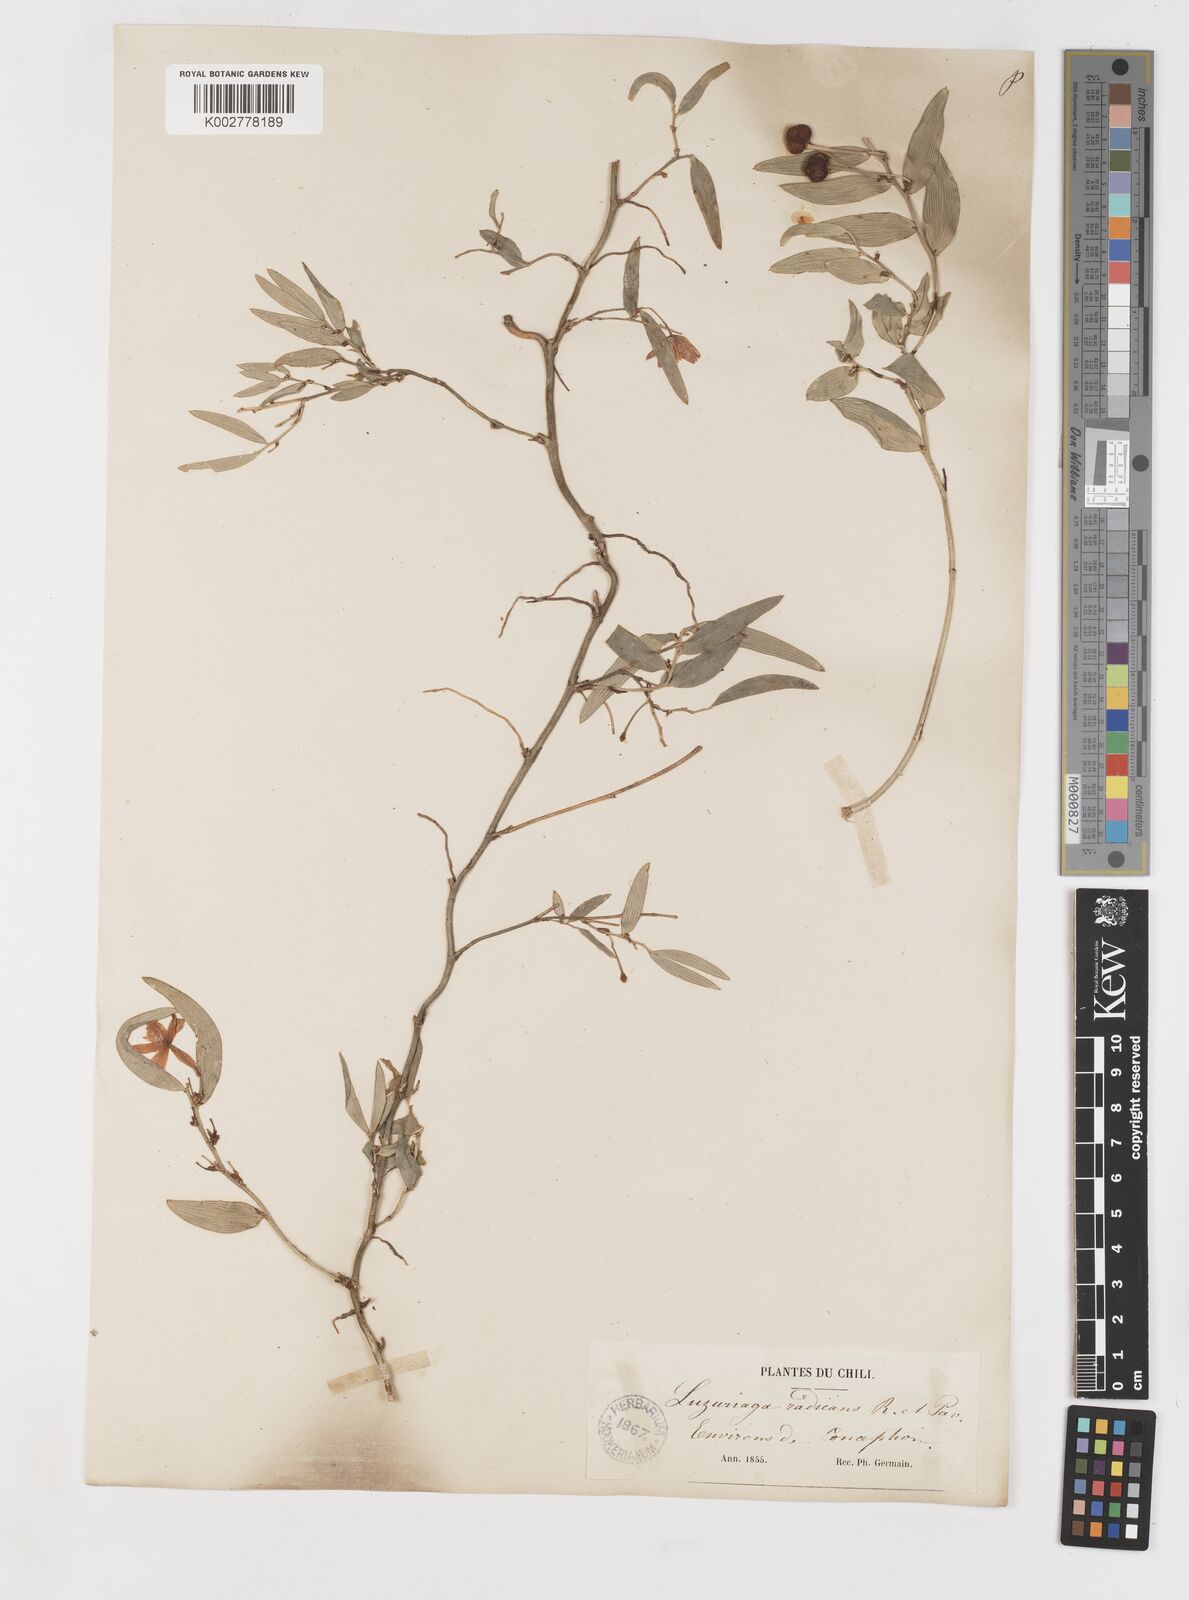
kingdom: Plantae
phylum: Tracheophyta
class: Liliopsida
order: Liliales
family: Alstroemeriaceae
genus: Luzuriaga
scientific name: Luzuriaga radicans
